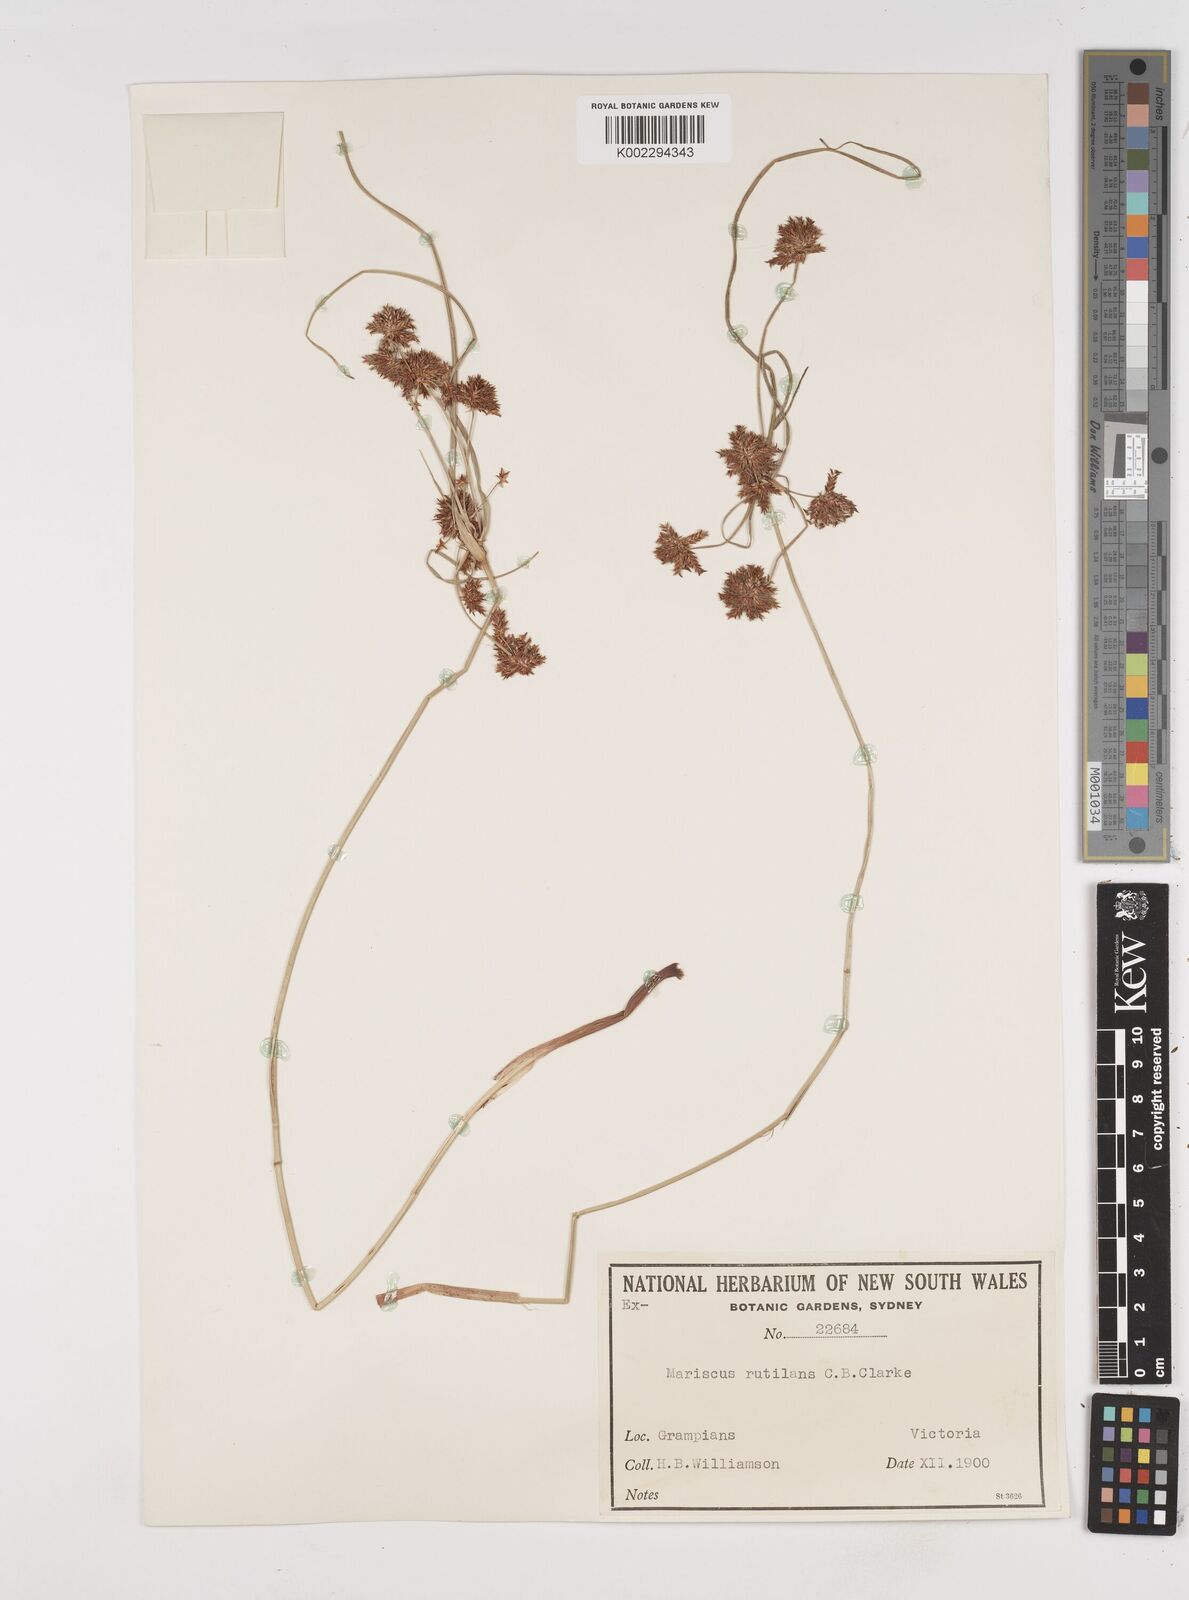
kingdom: Plantae
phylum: Tracheophyta
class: Liliopsida
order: Poales
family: Cyperaceae
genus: Cyperus
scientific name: Cyperus lhotskyanus
